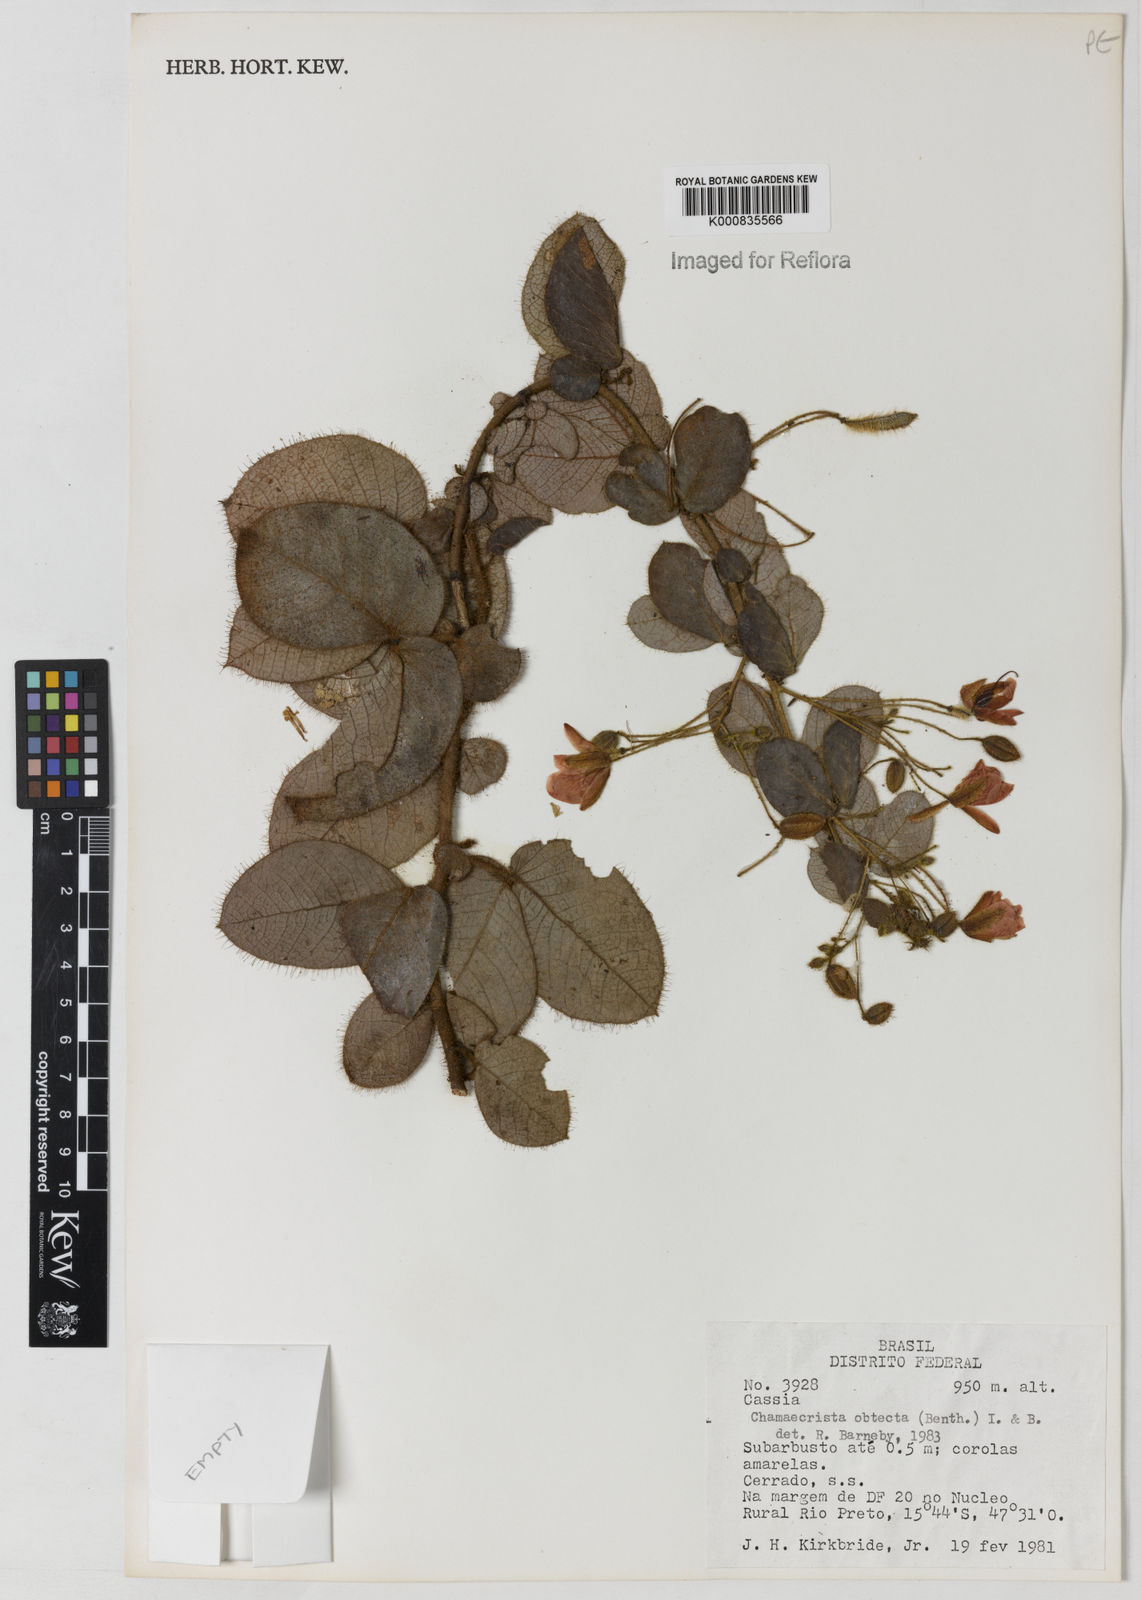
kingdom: Plantae
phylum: Tracheophyta
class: Magnoliopsida
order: Fabales
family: Fabaceae
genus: Chamaecrista
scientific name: Chamaecrista obtecta
